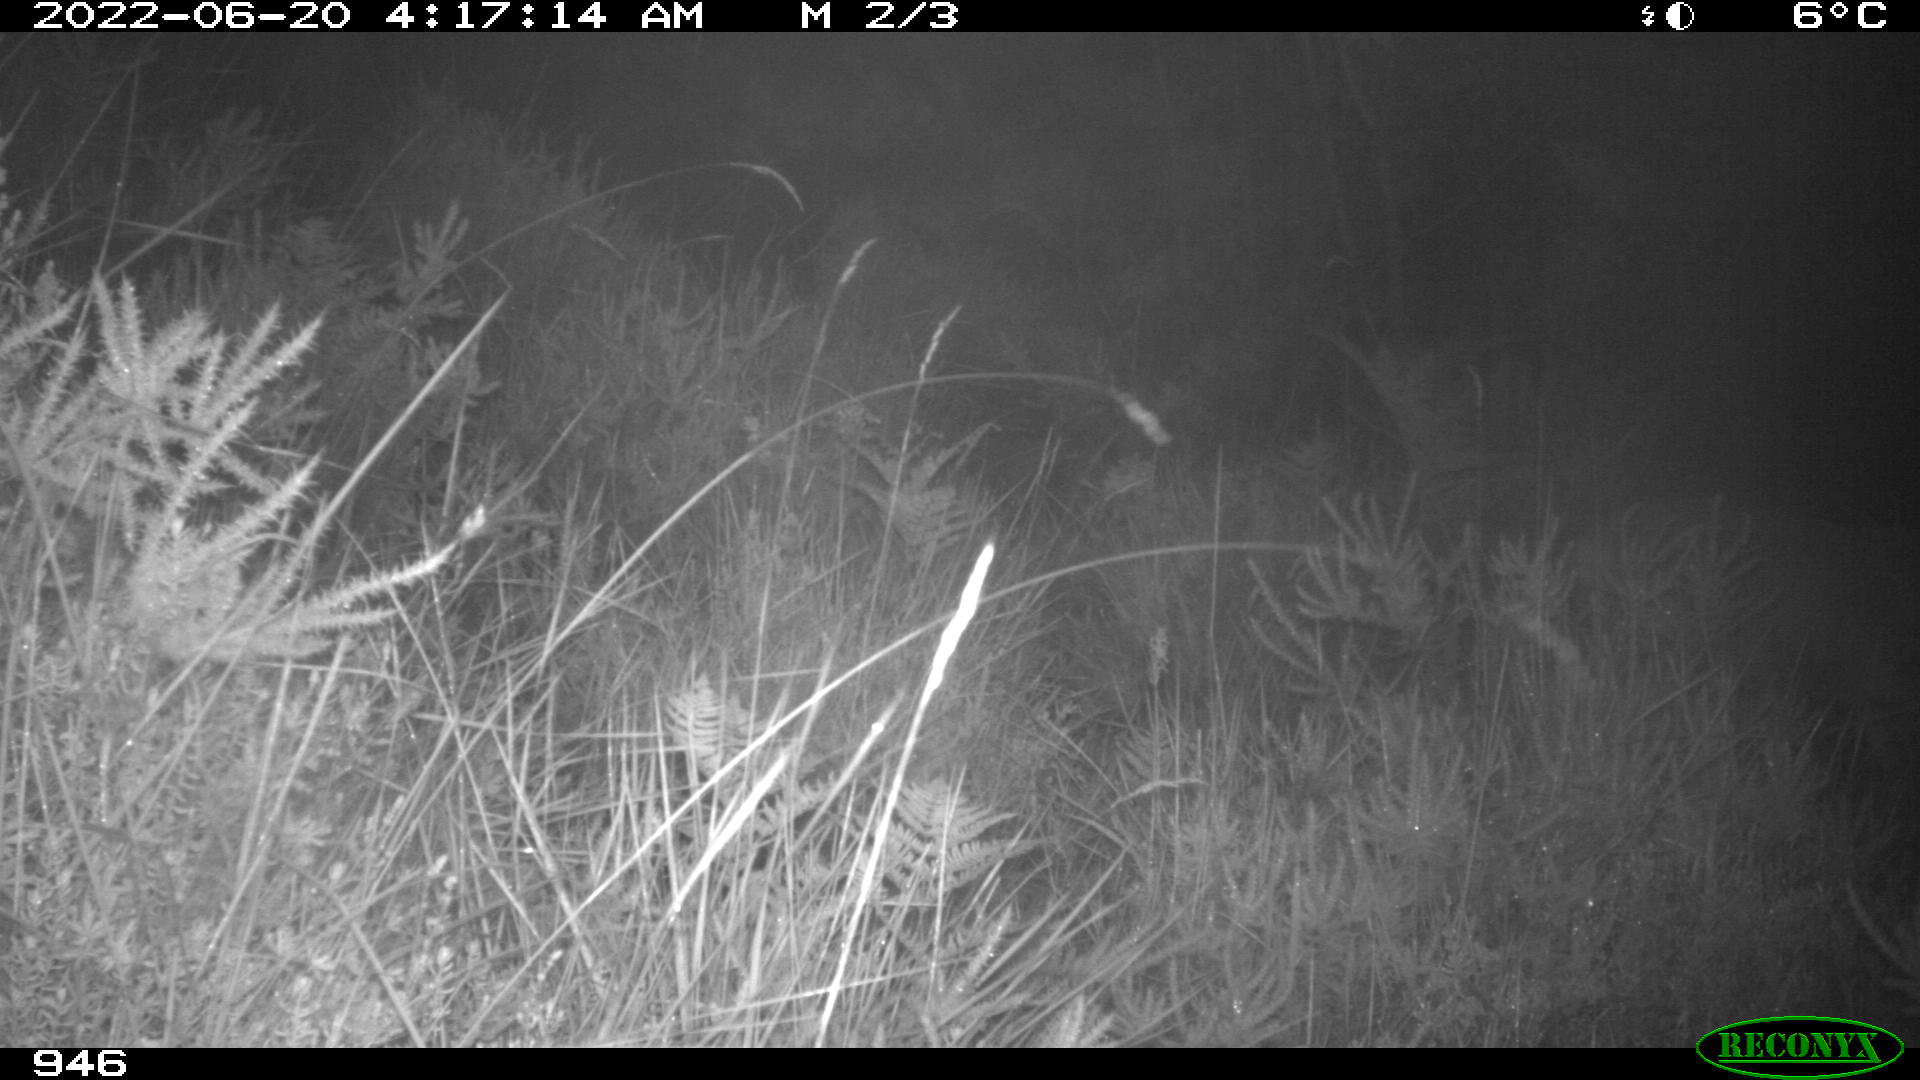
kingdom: Animalia
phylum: Chordata
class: Mammalia
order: Artiodactyla
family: Cervidae
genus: Capreolus
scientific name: Capreolus capreolus
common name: Western roe deer
